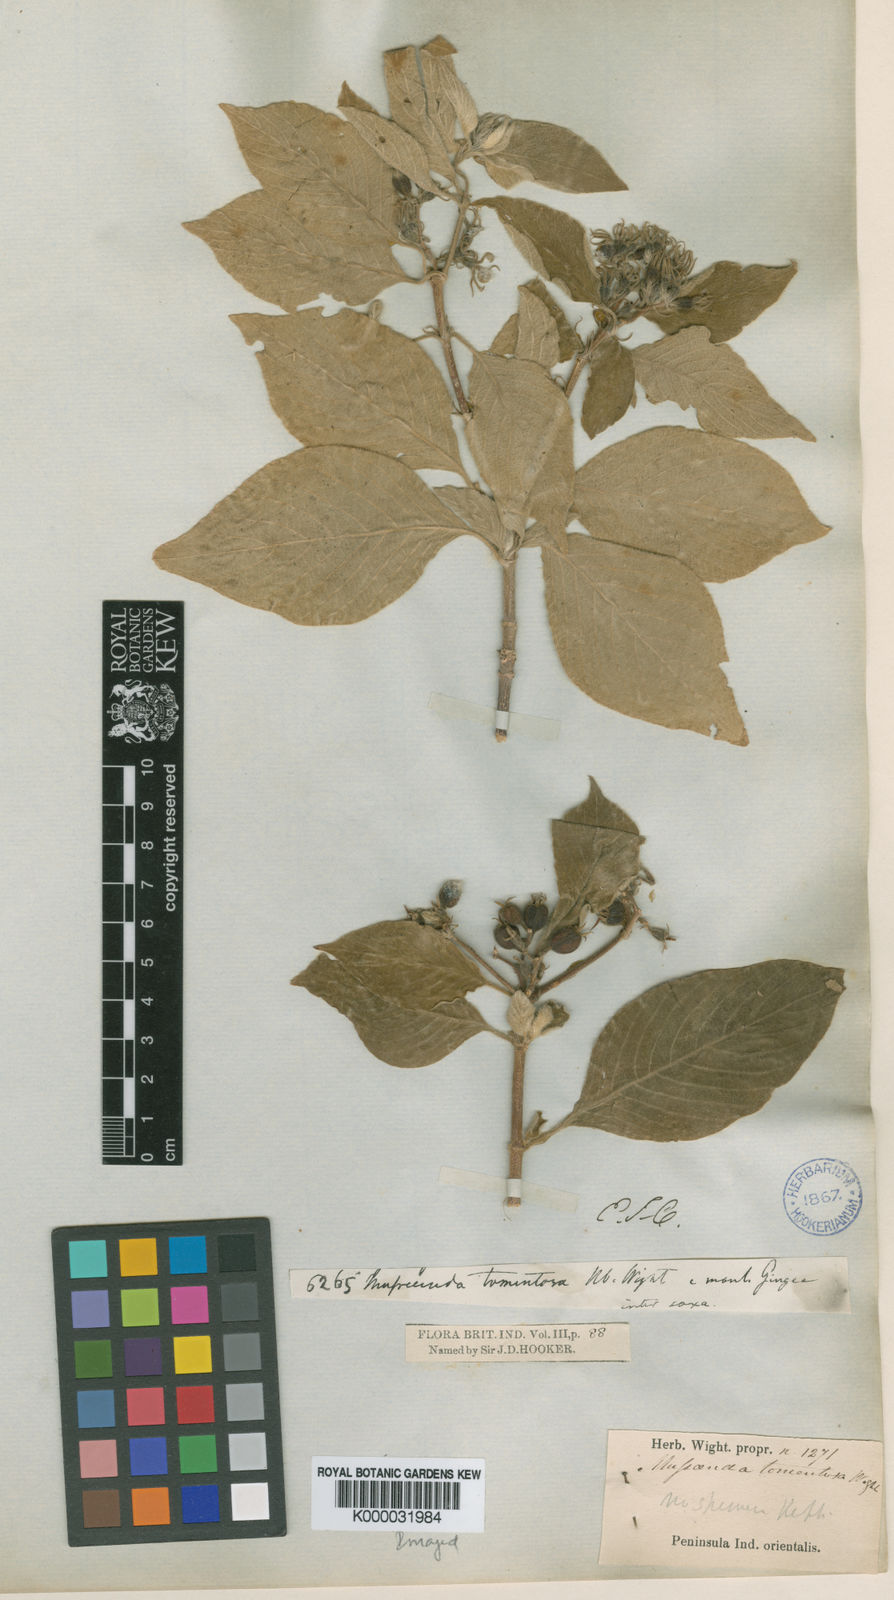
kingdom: Plantae
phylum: Tracheophyta
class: Magnoliopsida
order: Gentianales
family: Rubiaceae
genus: Mussaenda
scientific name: Mussaenda
